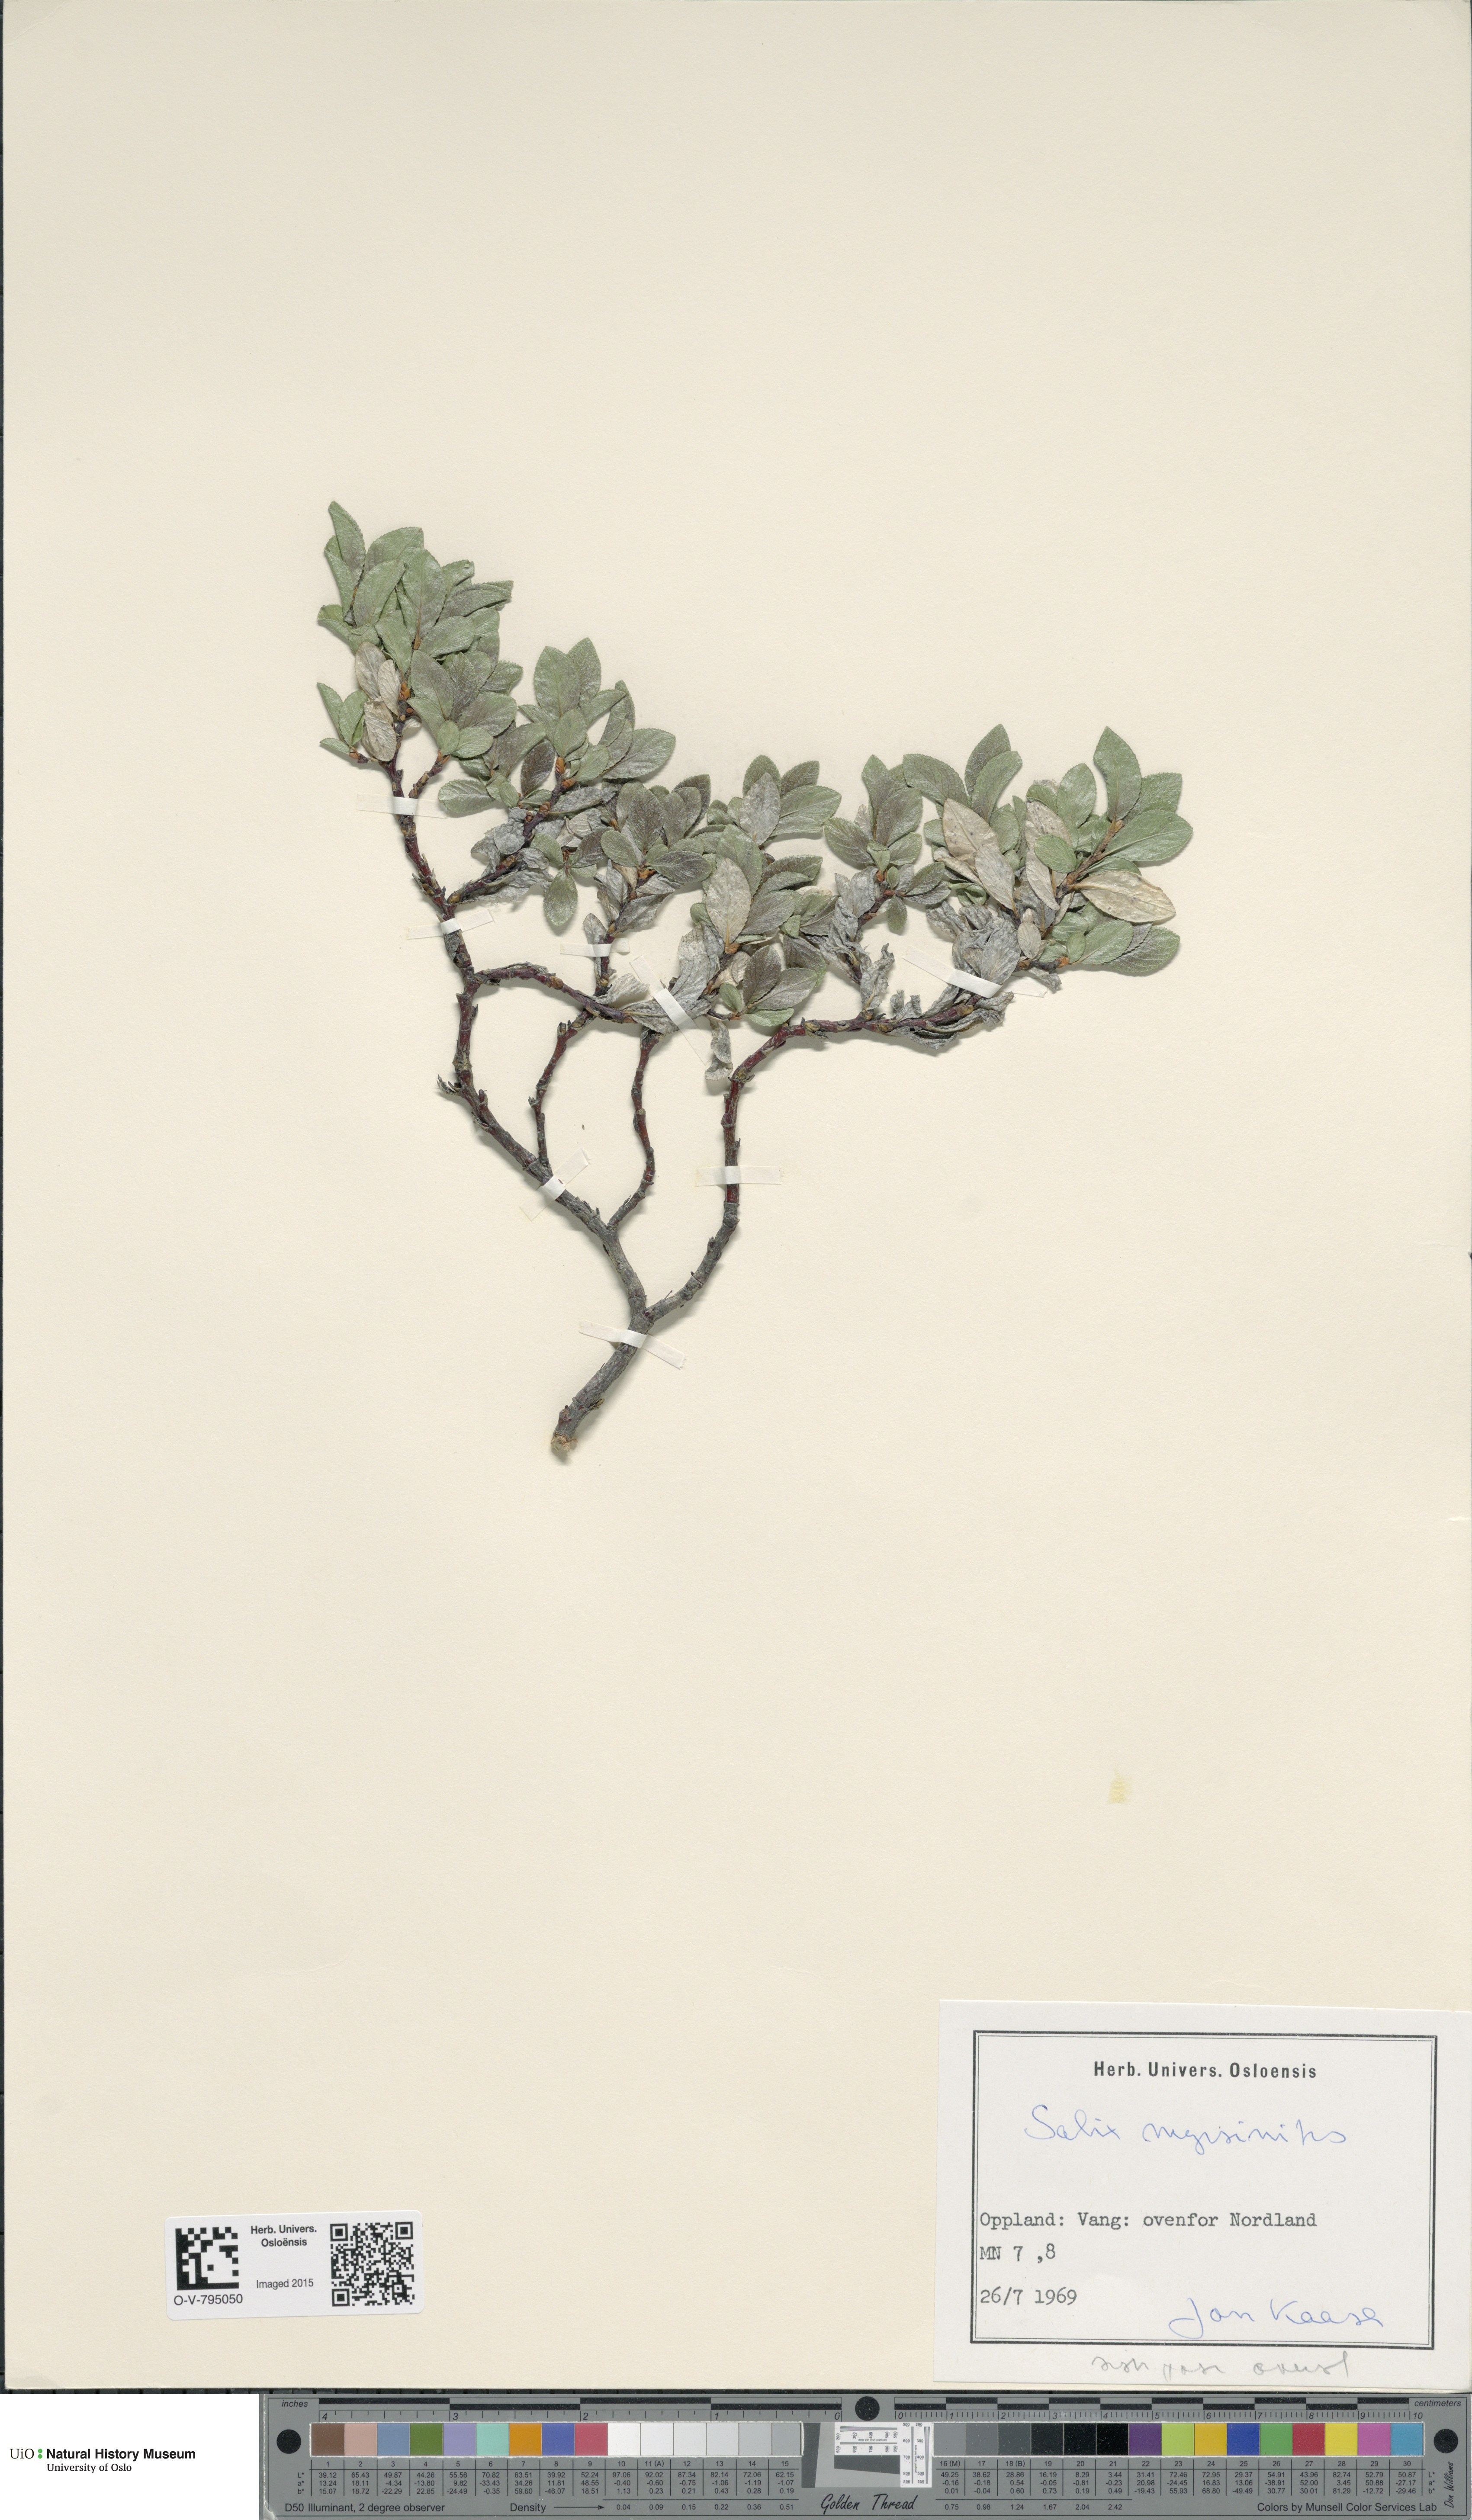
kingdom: Plantae
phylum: Tracheophyta
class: Magnoliopsida
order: Malpighiales
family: Salicaceae
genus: Salix
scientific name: Salix myrsinites
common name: Myrtle willow
